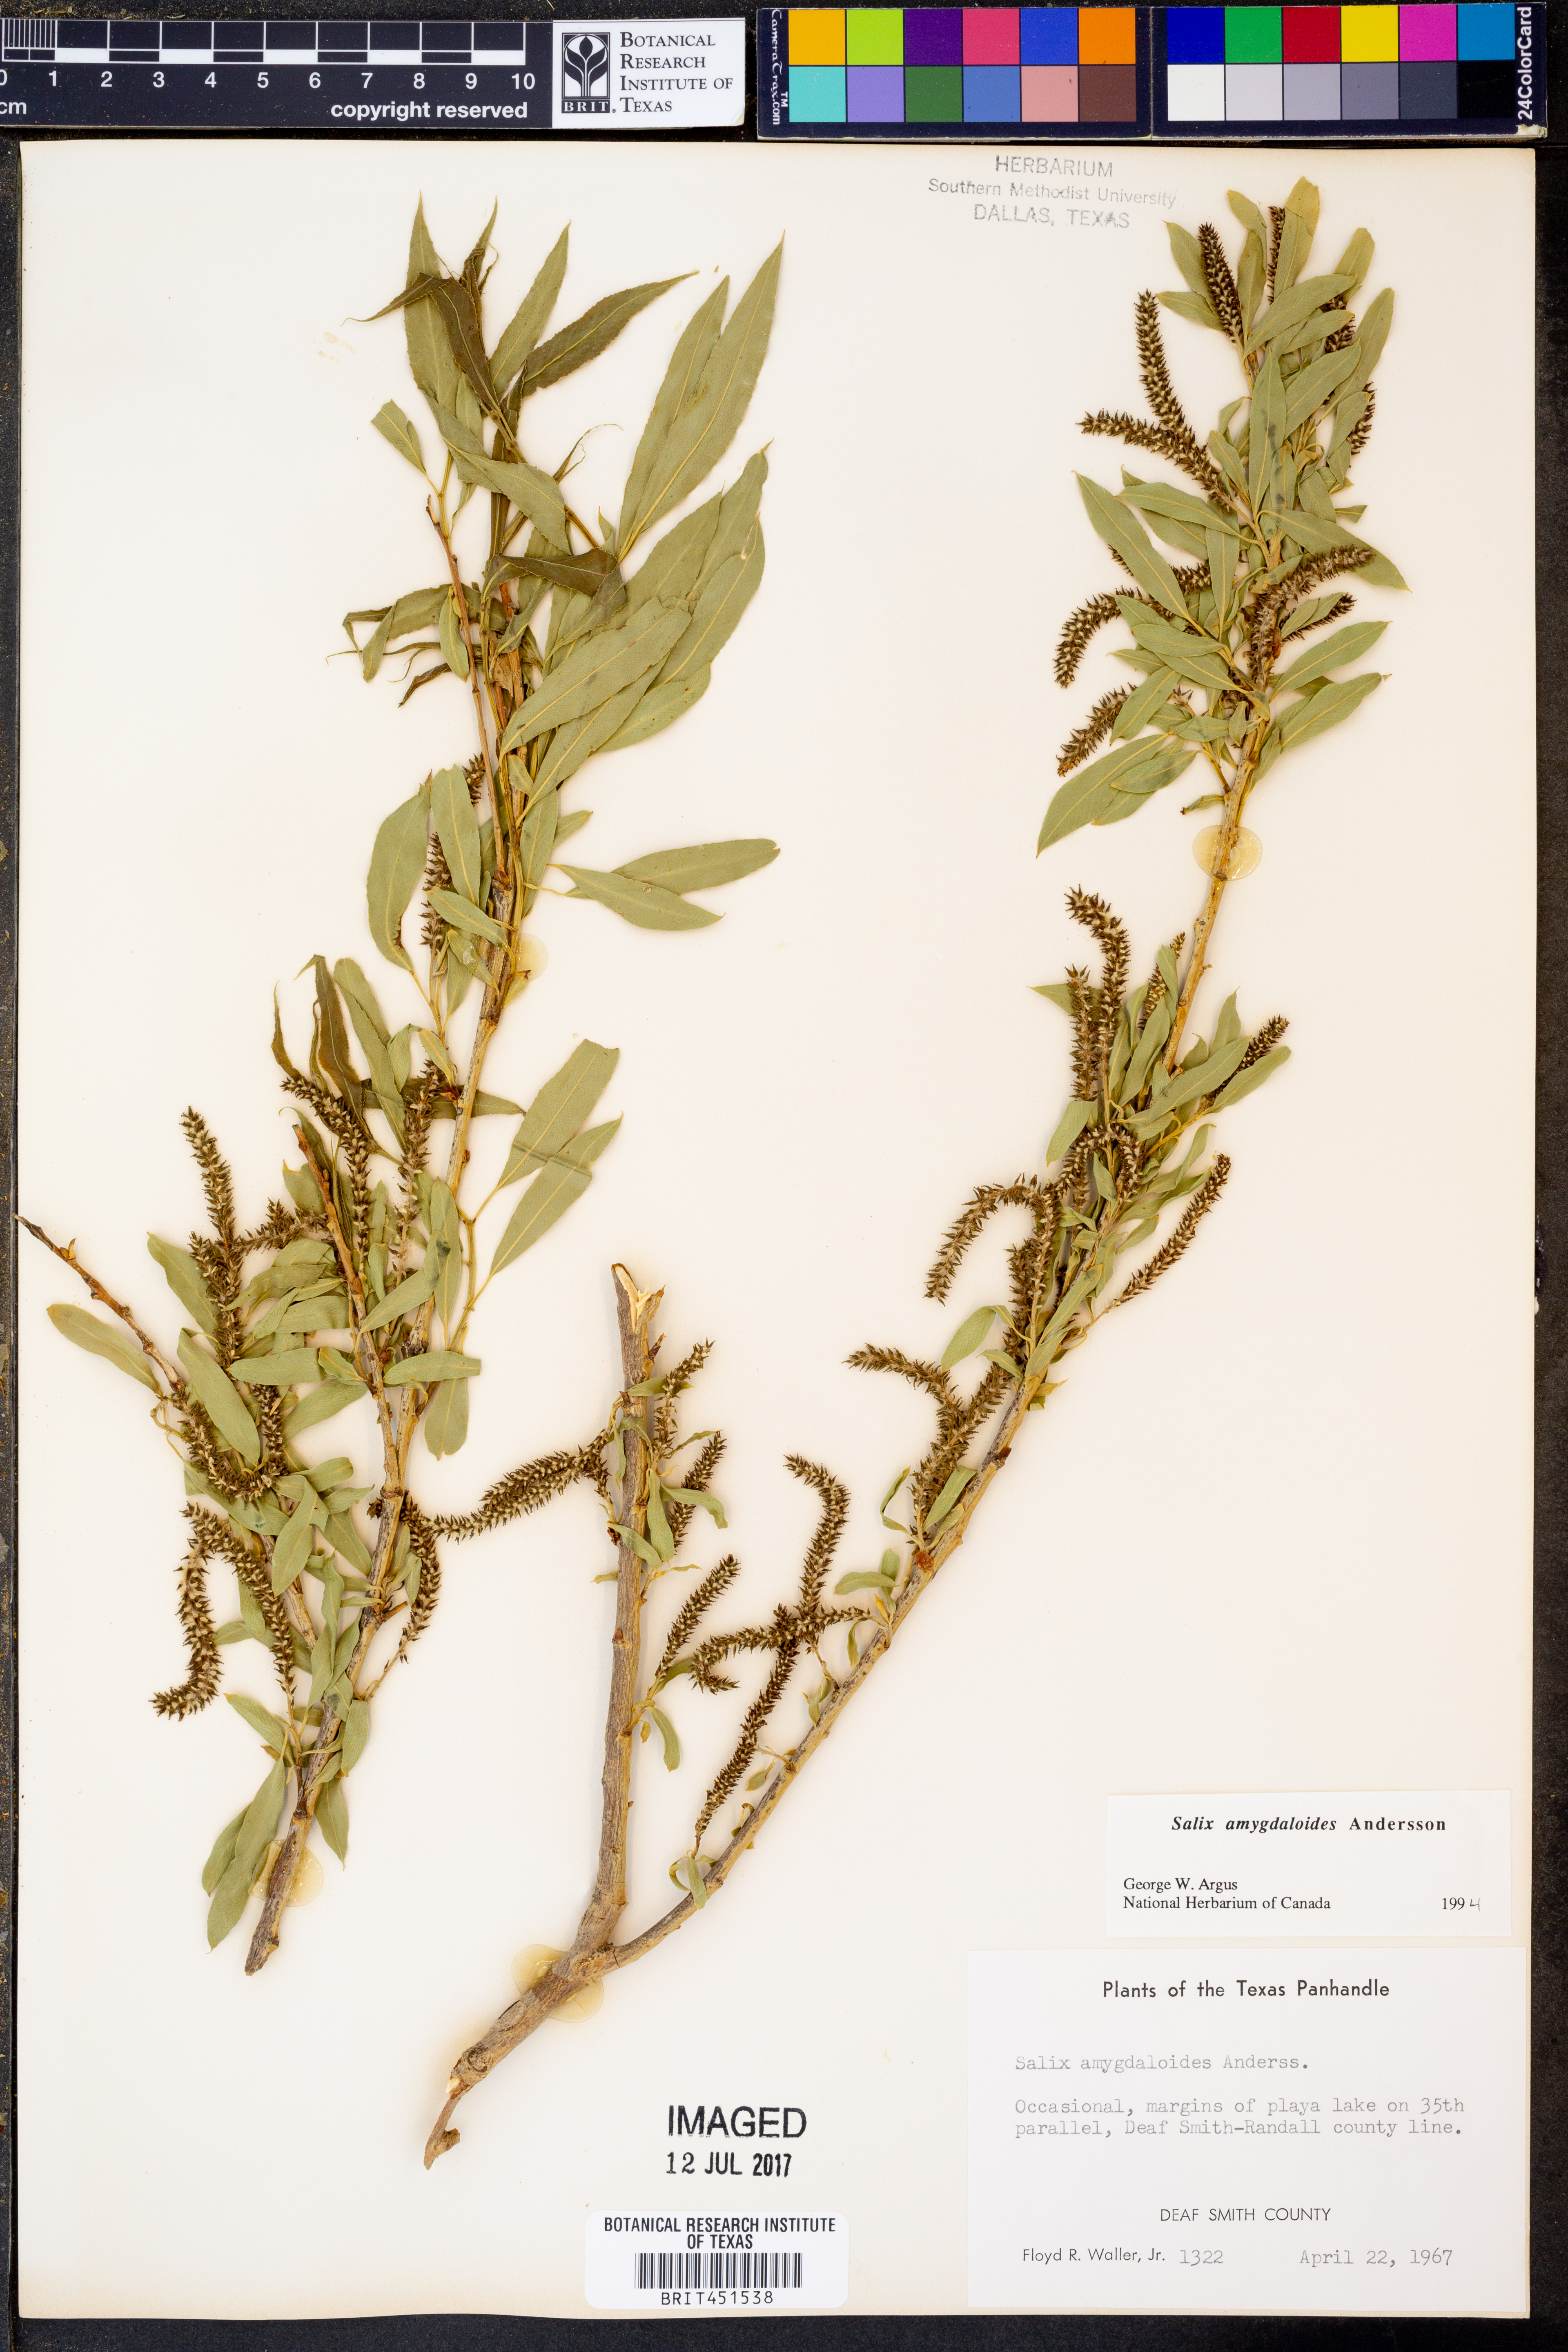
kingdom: Plantae
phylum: Tracheophyta
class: Magnoliopsida
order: Malpighiales
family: Salicaceae
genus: Salix
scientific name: Salix amygdaloides
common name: Peach leaf willow
